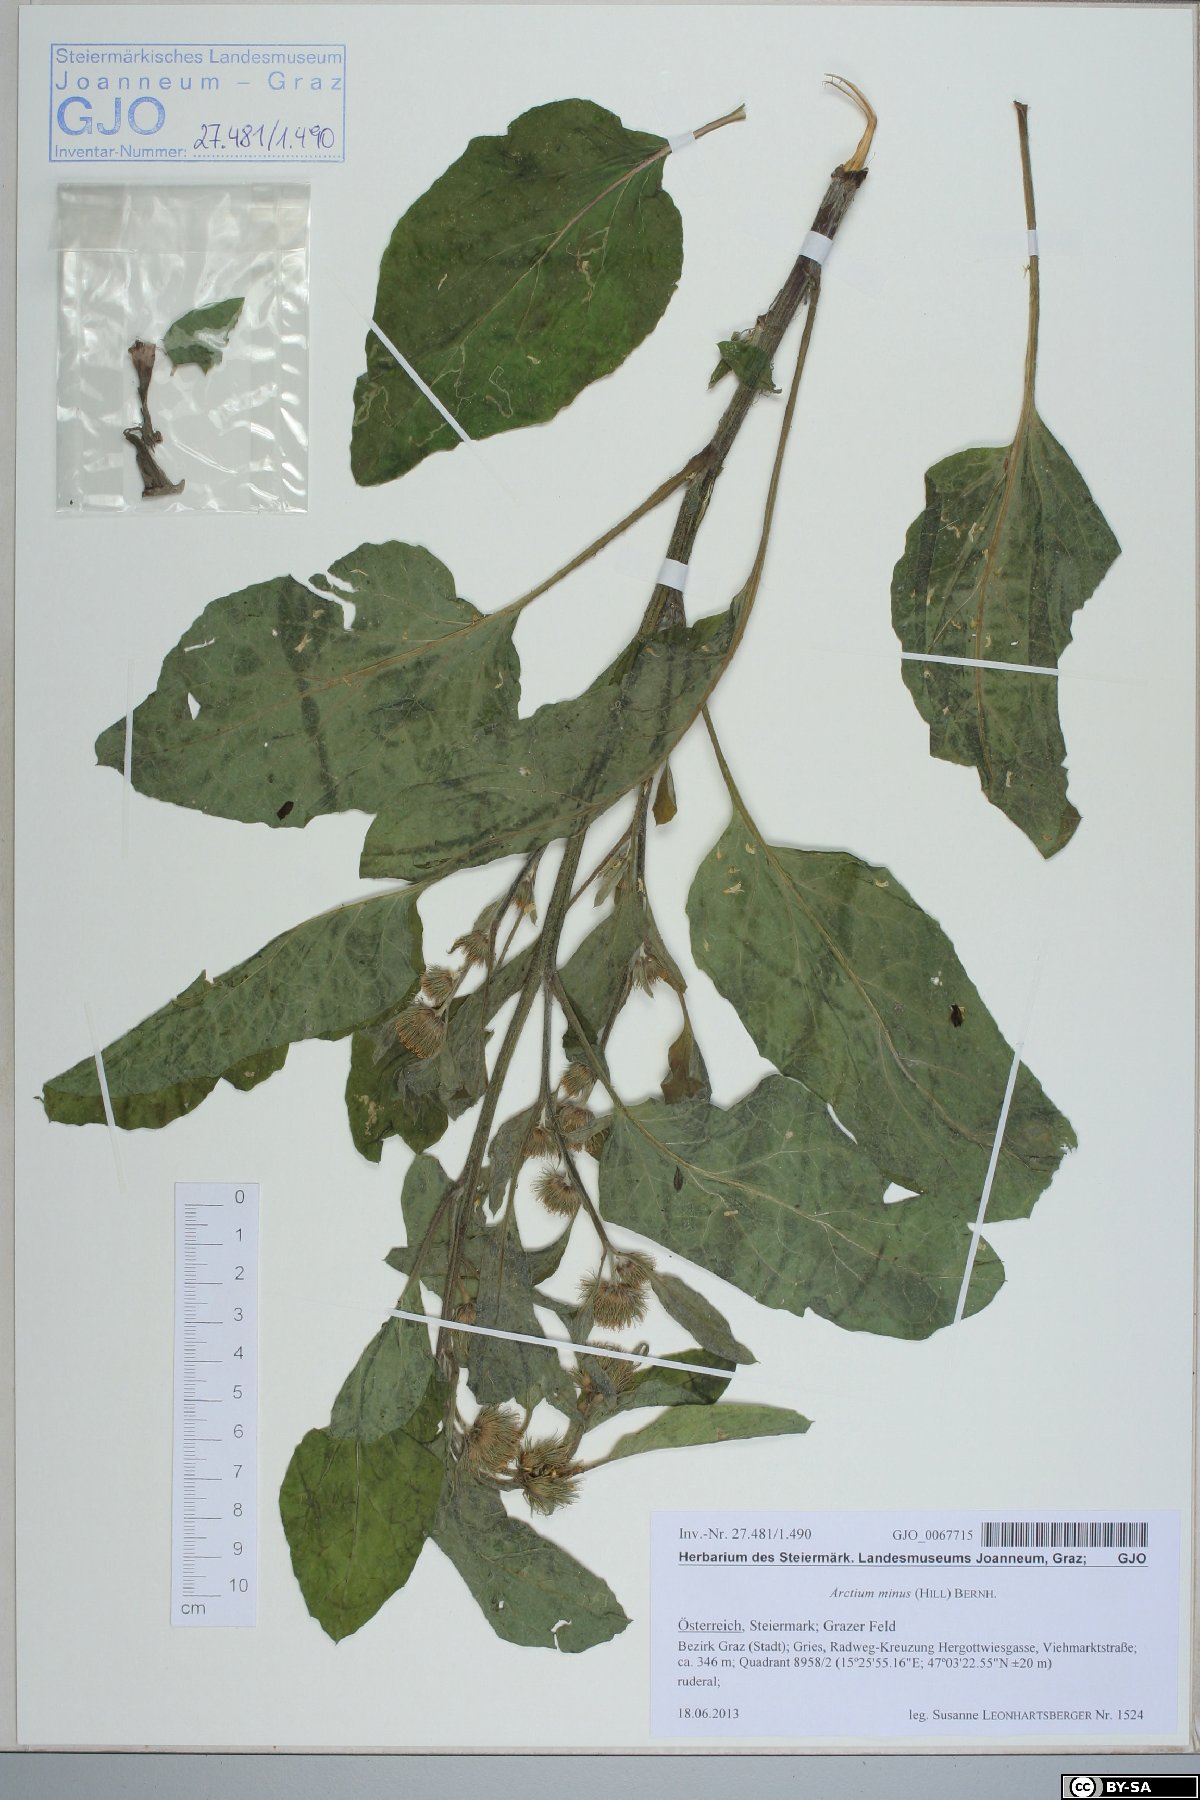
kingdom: Plantae
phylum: Tracheophyta
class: Magnoliopsida
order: Asterales
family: Asteraceae
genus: Arctium
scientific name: Arctium minus
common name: Lesser burdock
